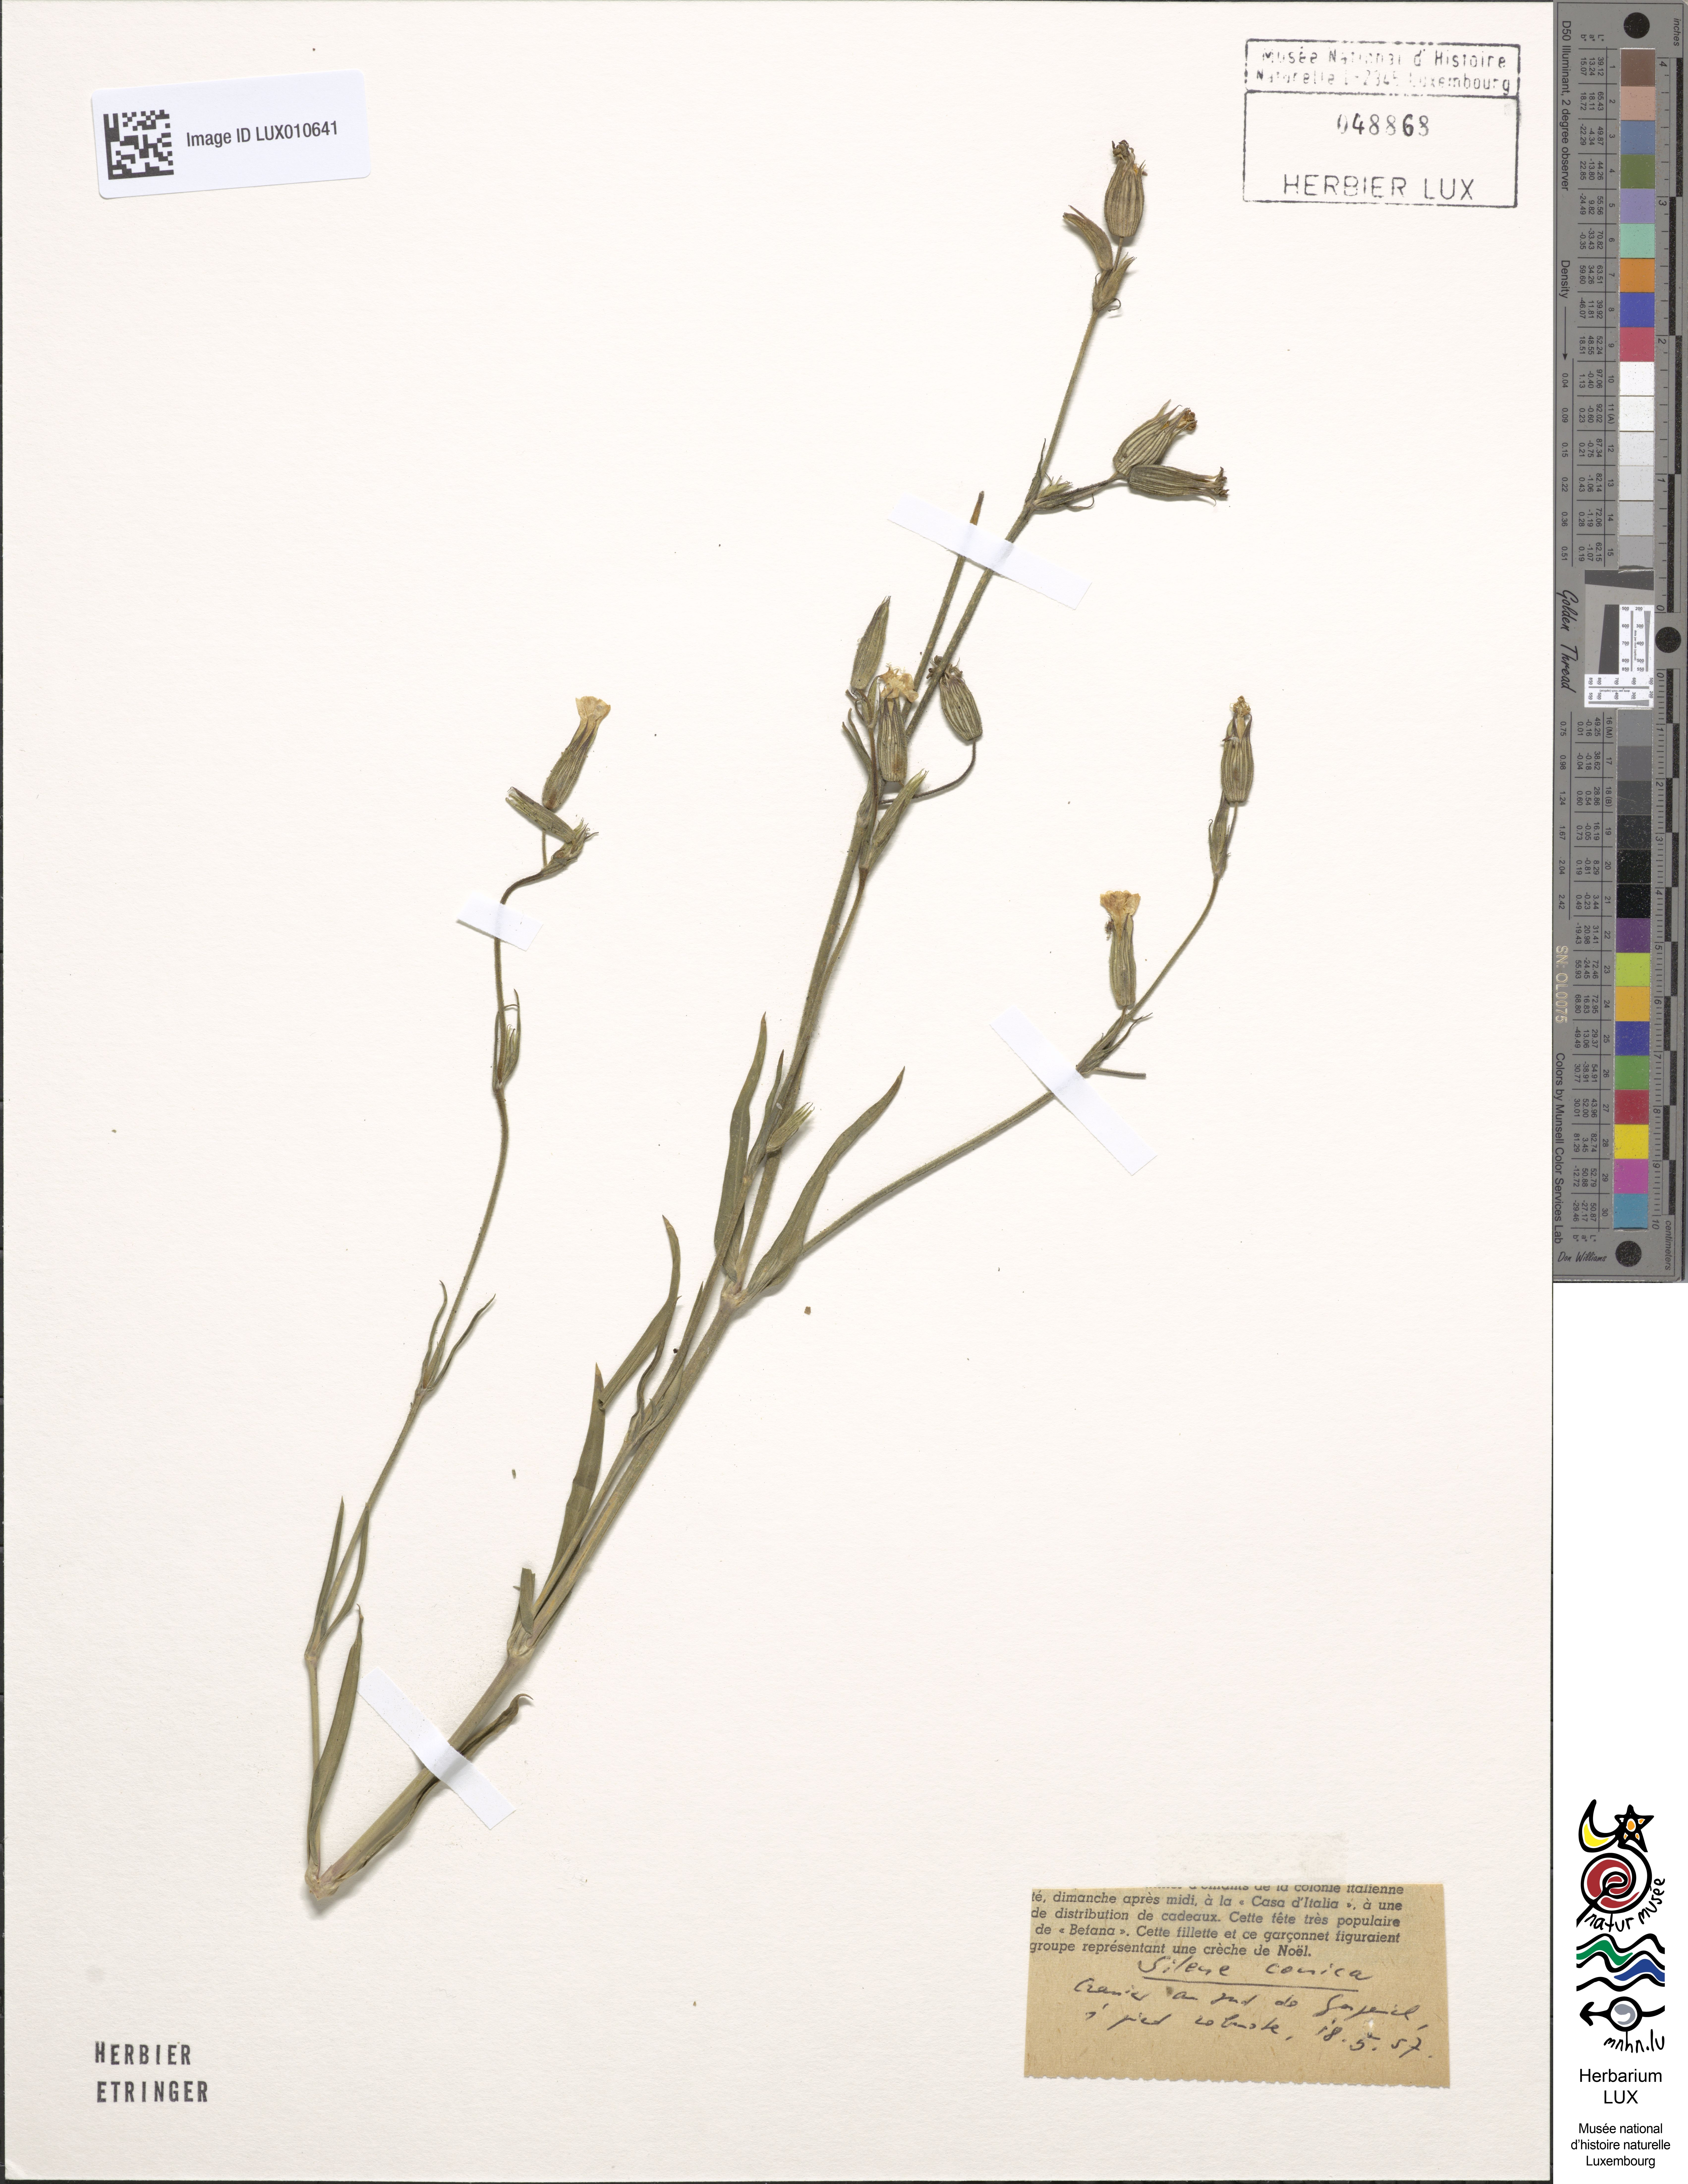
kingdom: Plantae
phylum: Tracheophyta
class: Magnoliopsida
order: Caryophyllales
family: Caryophyllaceae
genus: Silene
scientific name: Silene conica
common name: Sand catchfly
